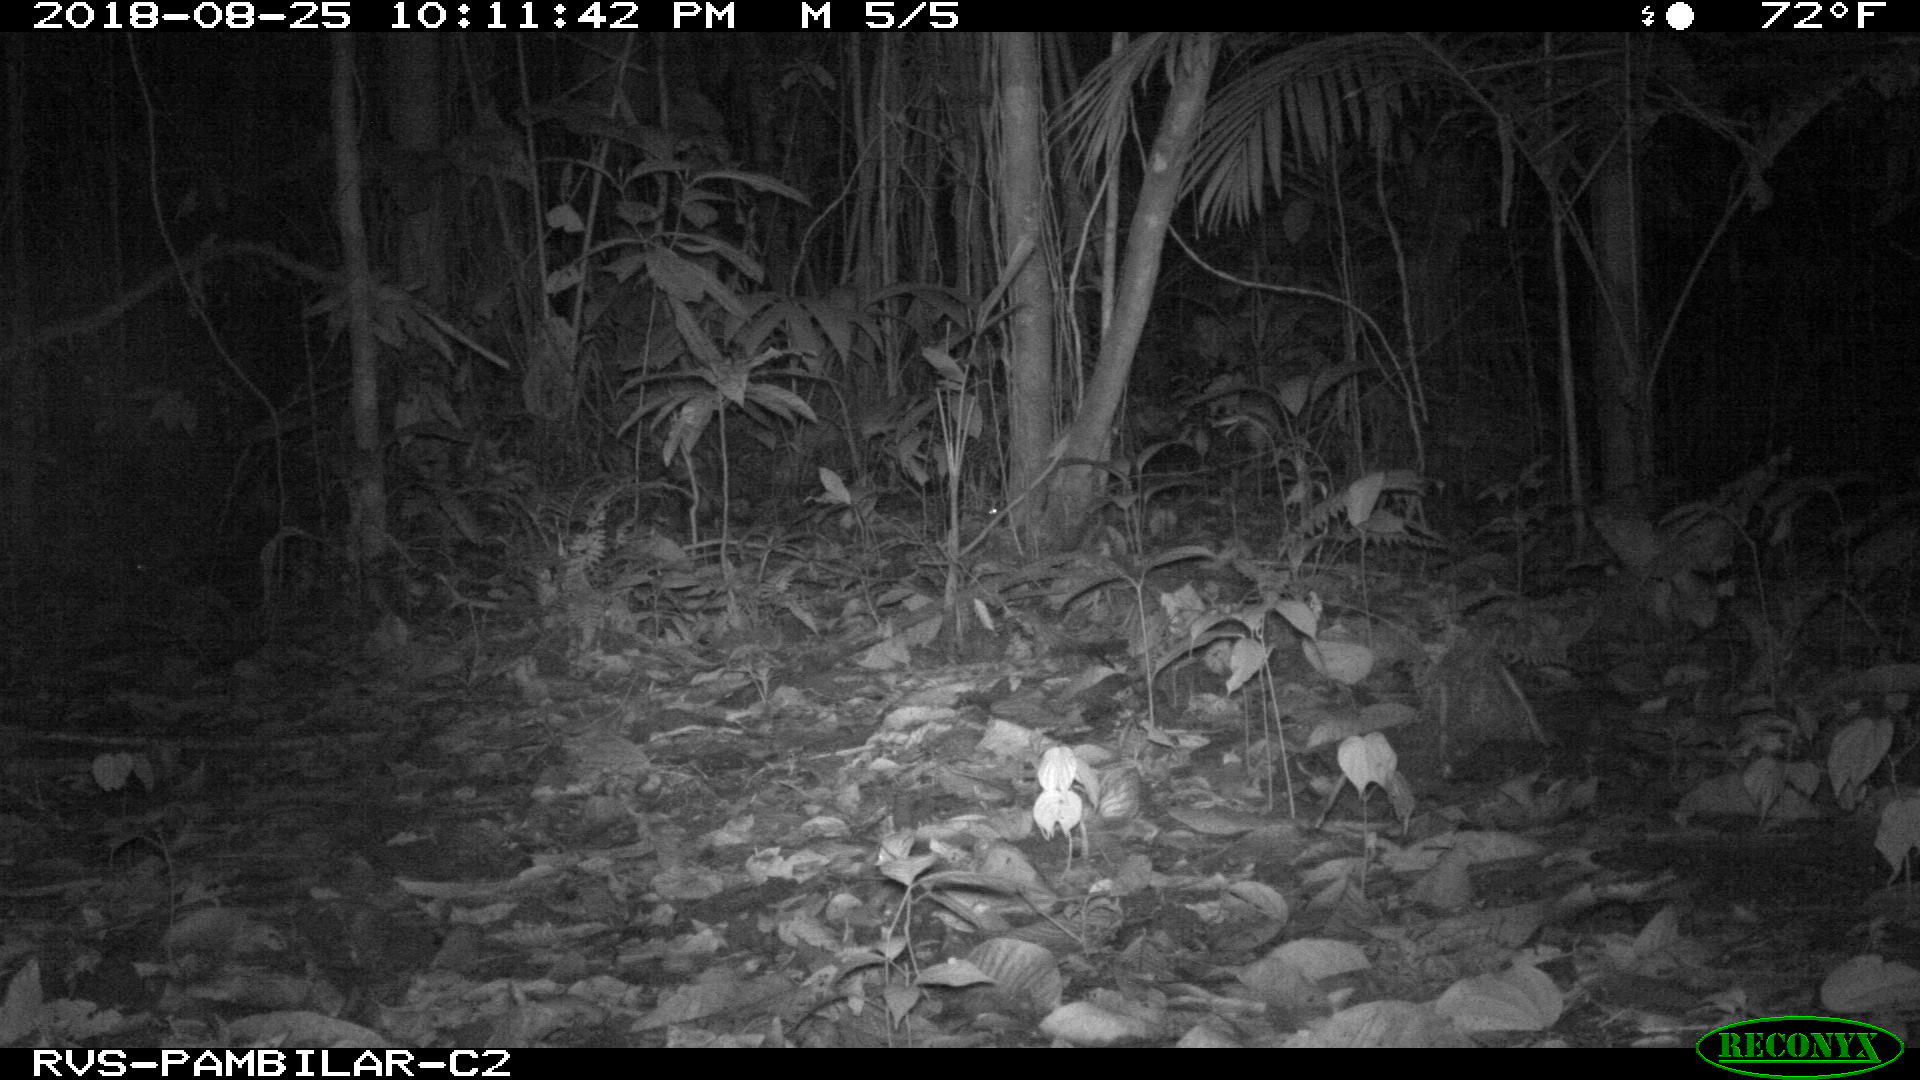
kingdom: Animalia
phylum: Chordata
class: Mammalia
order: Rodentia
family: Cuniculidae
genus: Cuniculus
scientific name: Cuniculus paca
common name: Lowland paca
